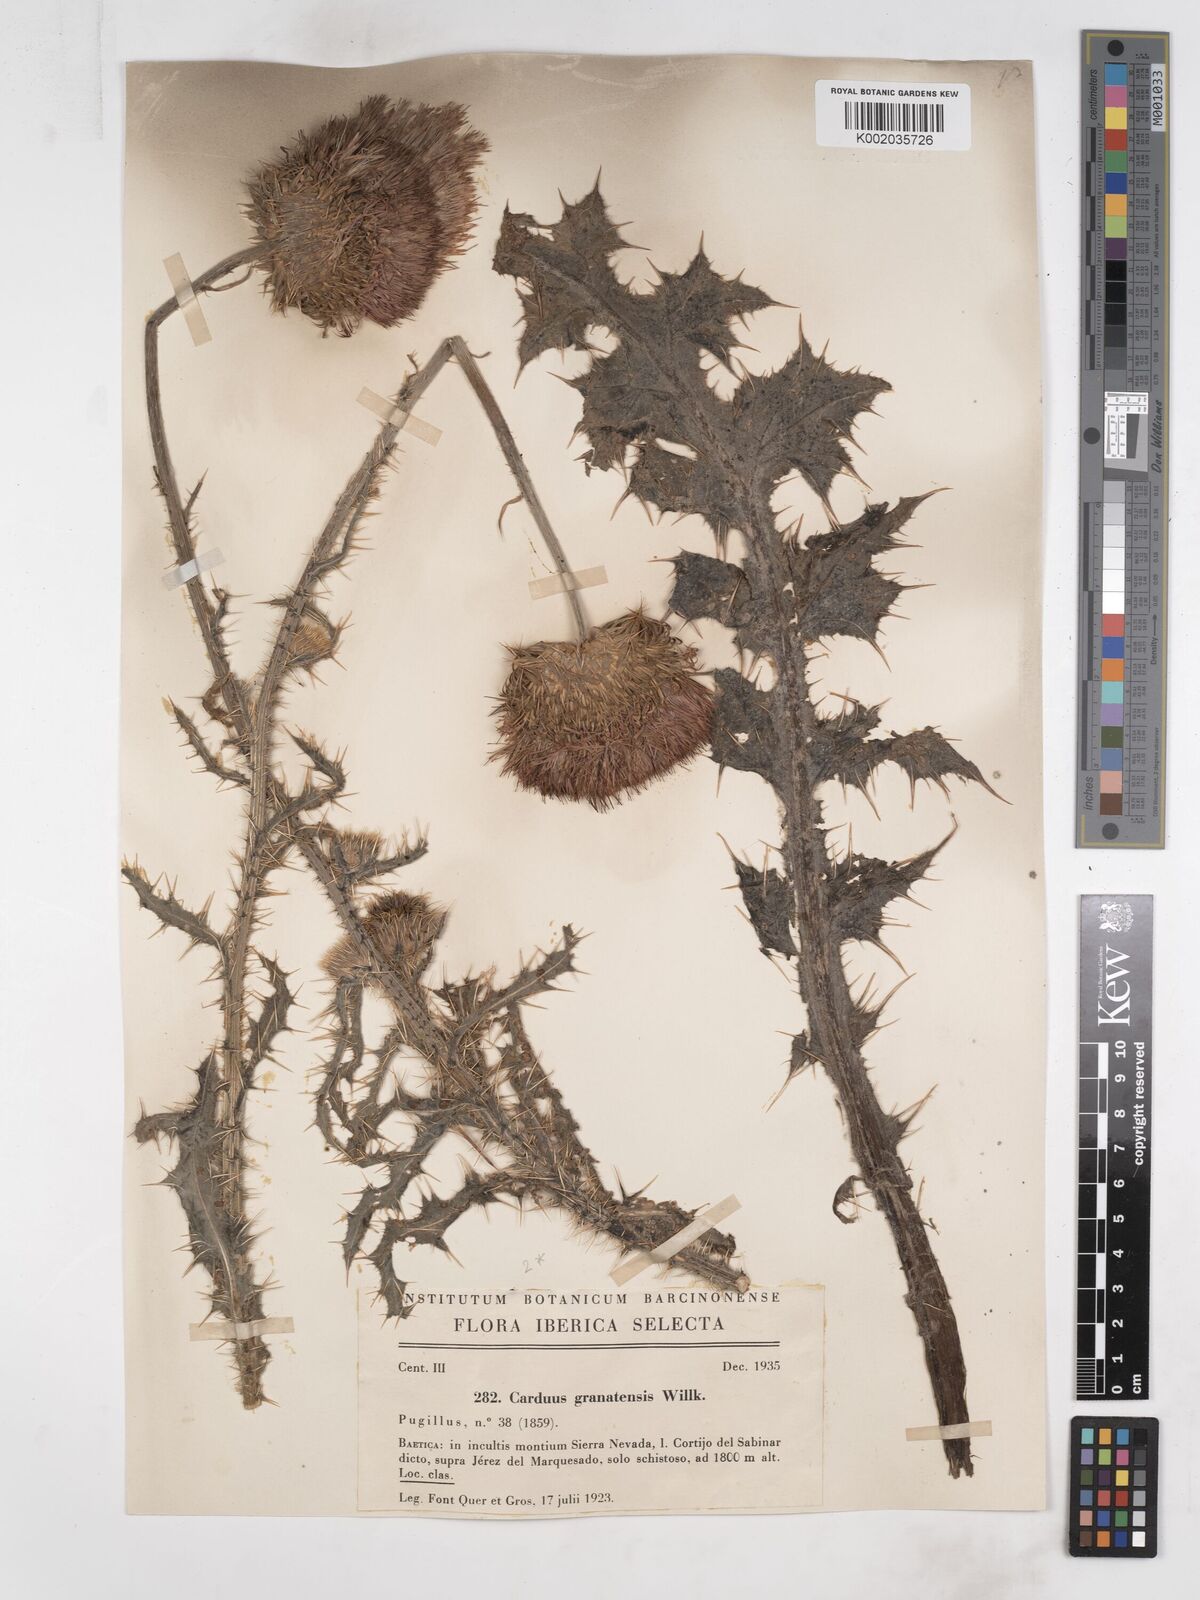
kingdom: Plantae
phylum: Tracheophyta
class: Magnoliopsida
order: Asterales
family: Asteraceae
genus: Carduus
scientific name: Carduus platypus
